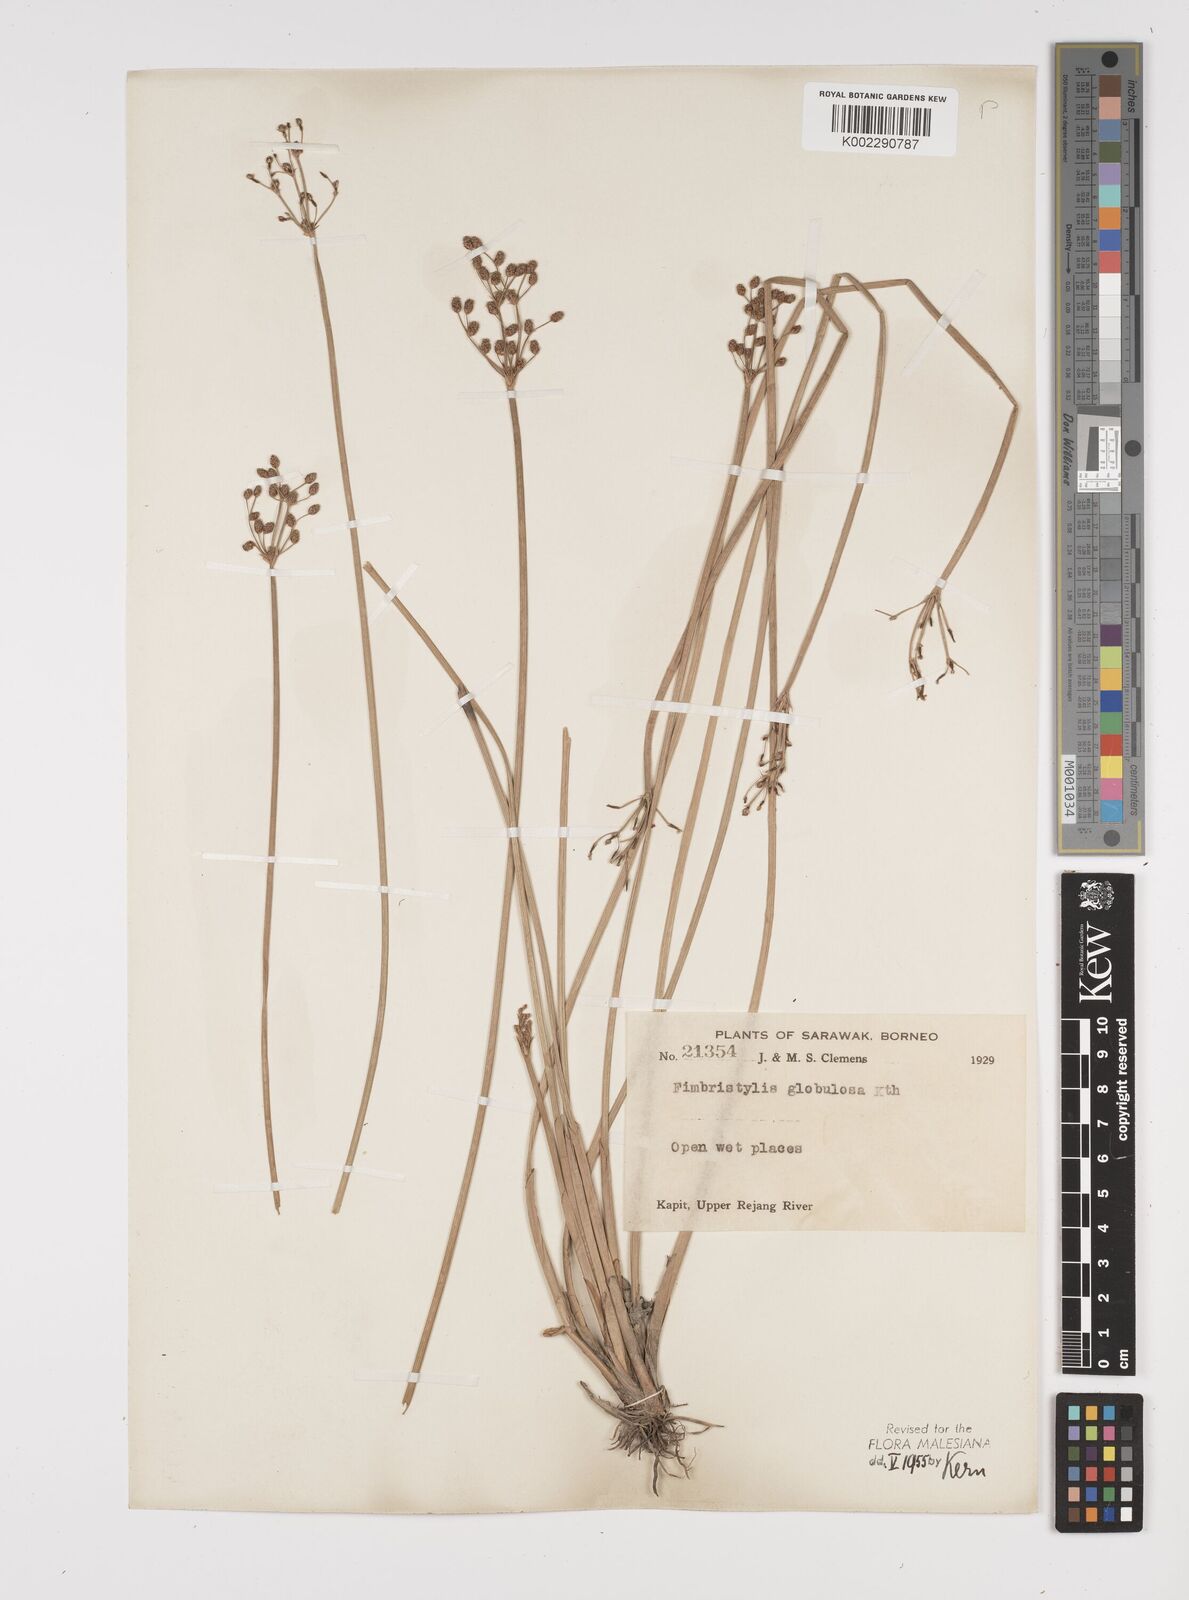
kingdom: Plantae
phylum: Tracheophyta
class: Liliopsida
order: Poales
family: Cyperaceae
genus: Fimbristylis
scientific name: Fimbristylis umbellaris
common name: Globular fimbristylis
